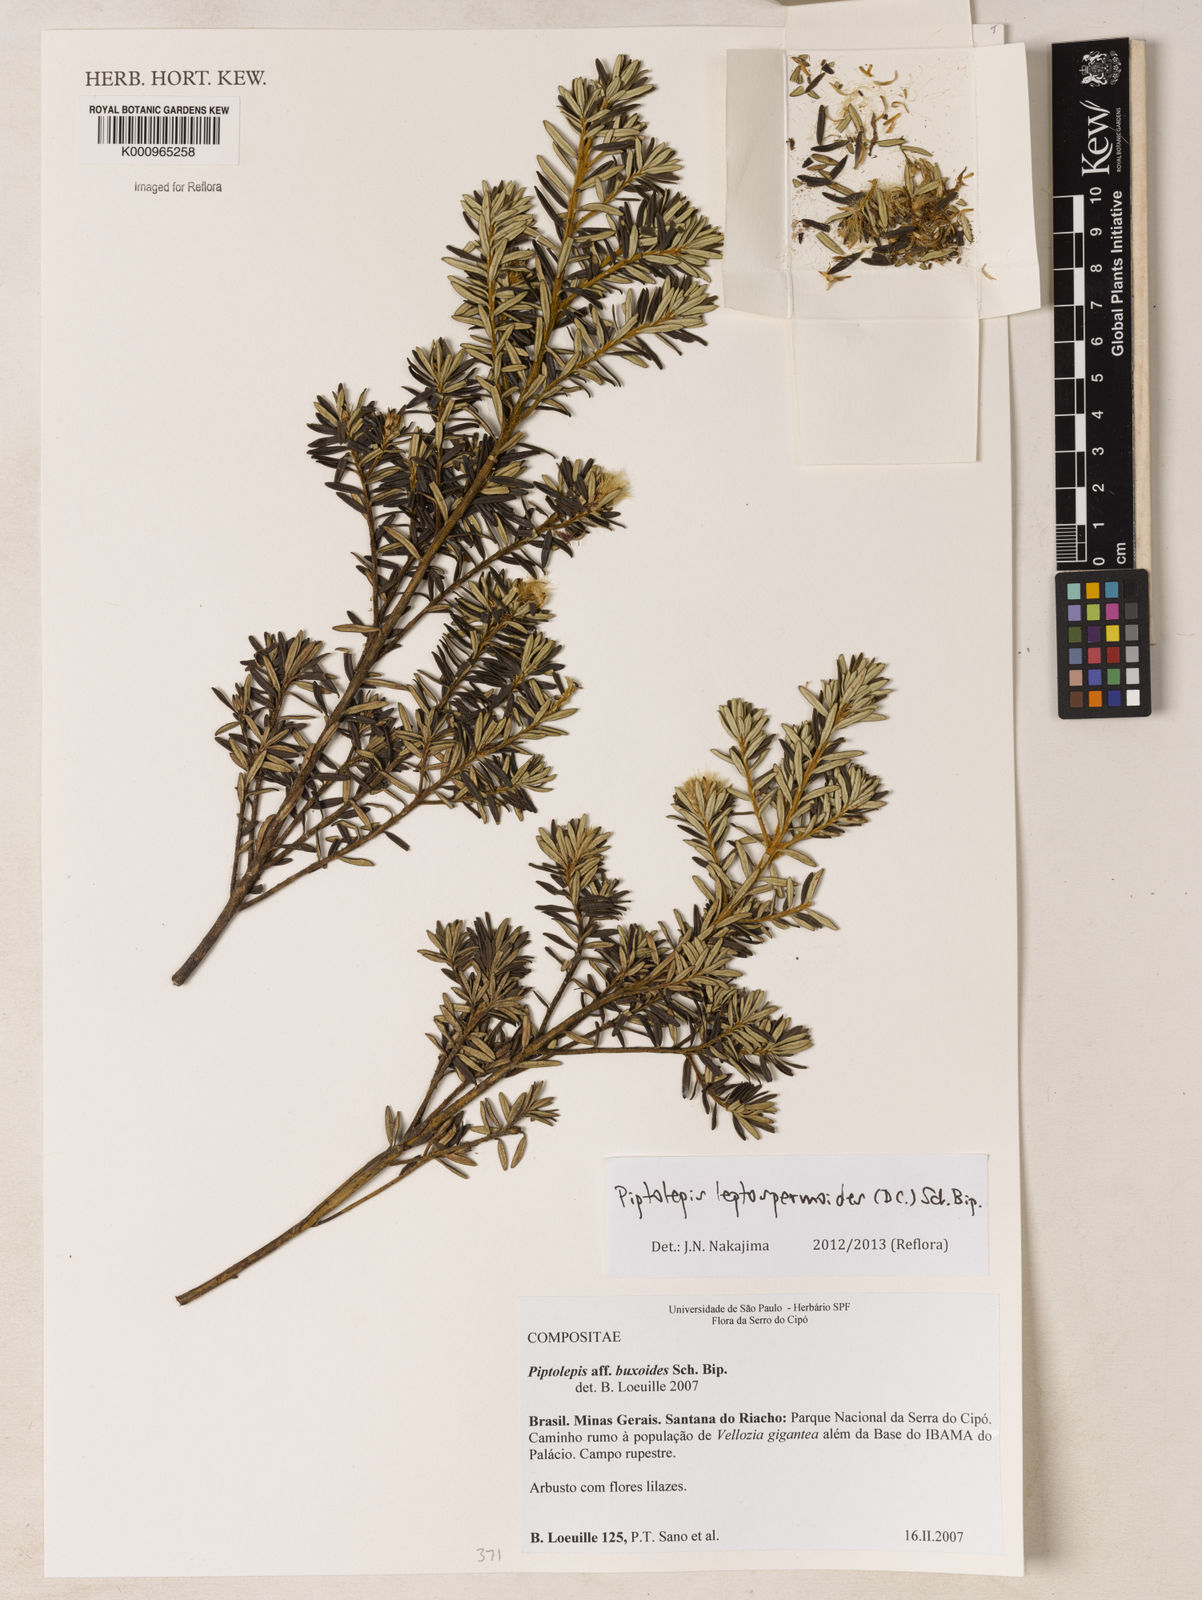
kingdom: Plantae
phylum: Tracheophyta
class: Magnoliopsida
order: Asterales
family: Asteraceae
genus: Piptolepis
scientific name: Piptolepis leptospermoides
